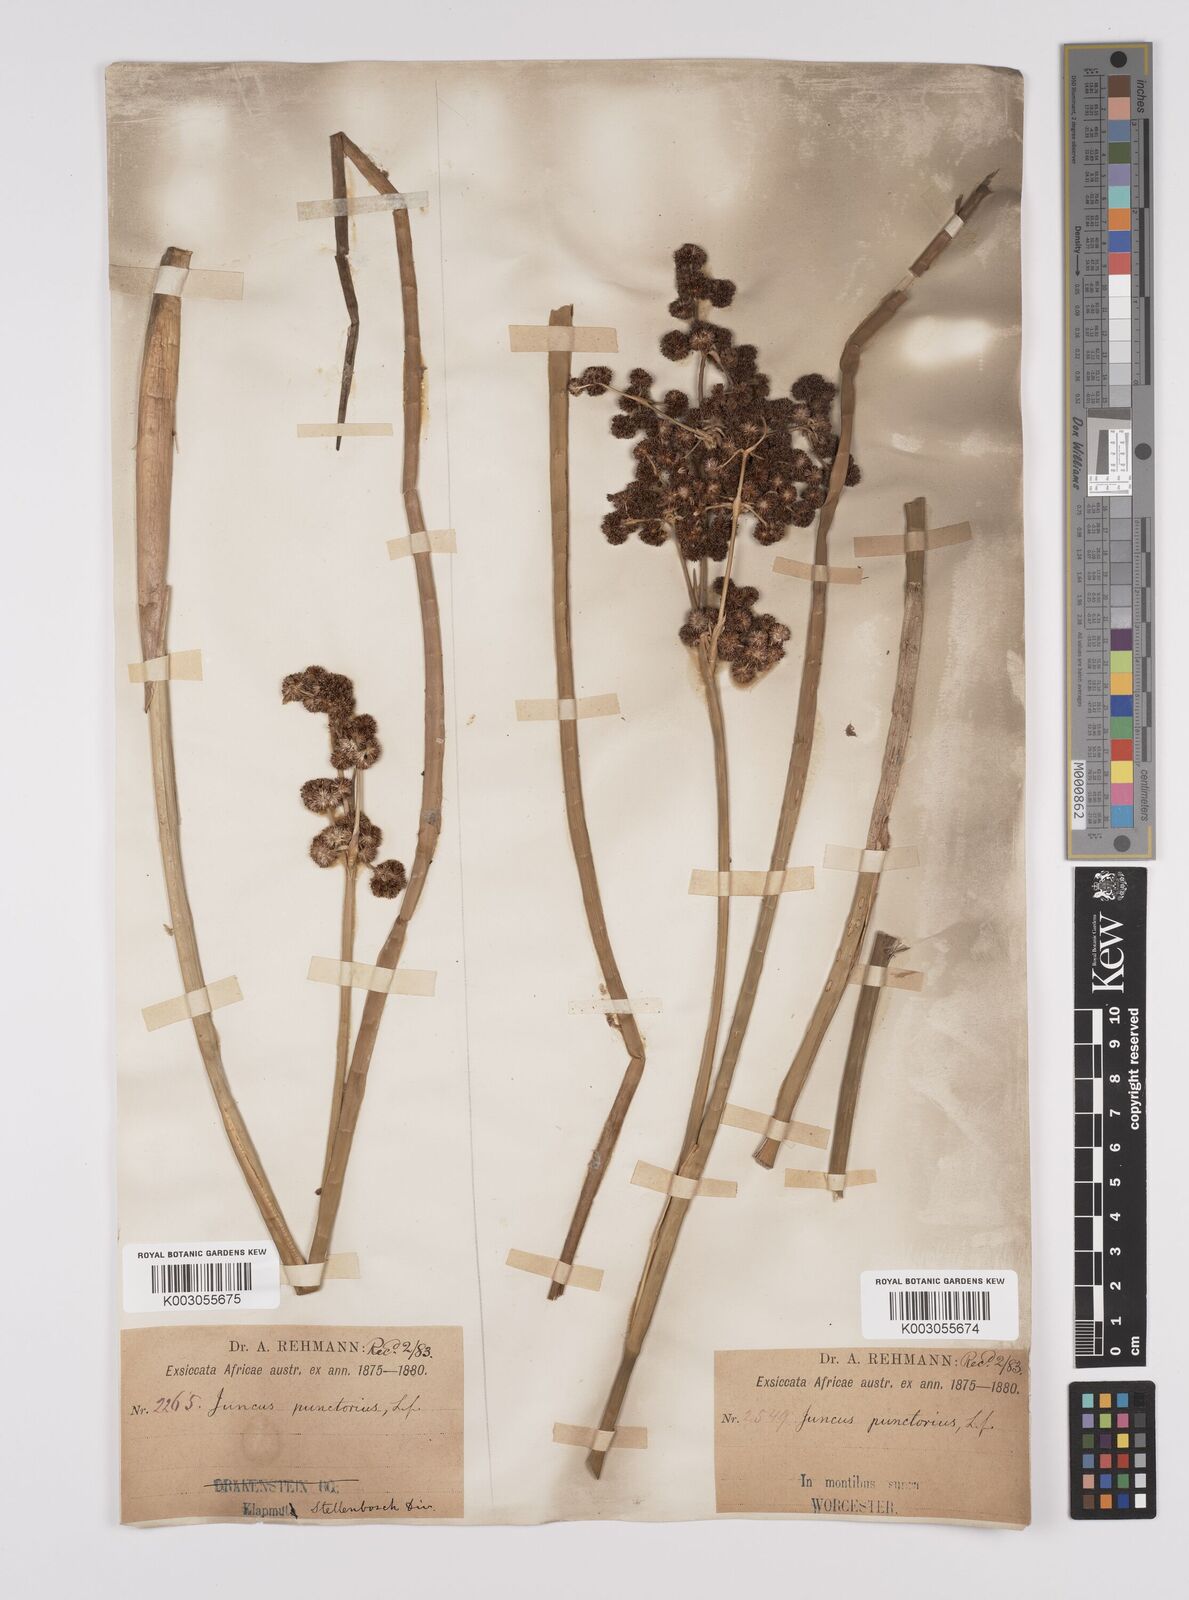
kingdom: Plantae
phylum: Tracheophyta
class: Liliopsida
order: Poales
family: Juncaceae
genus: Juncus
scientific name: Juncus punctorius
